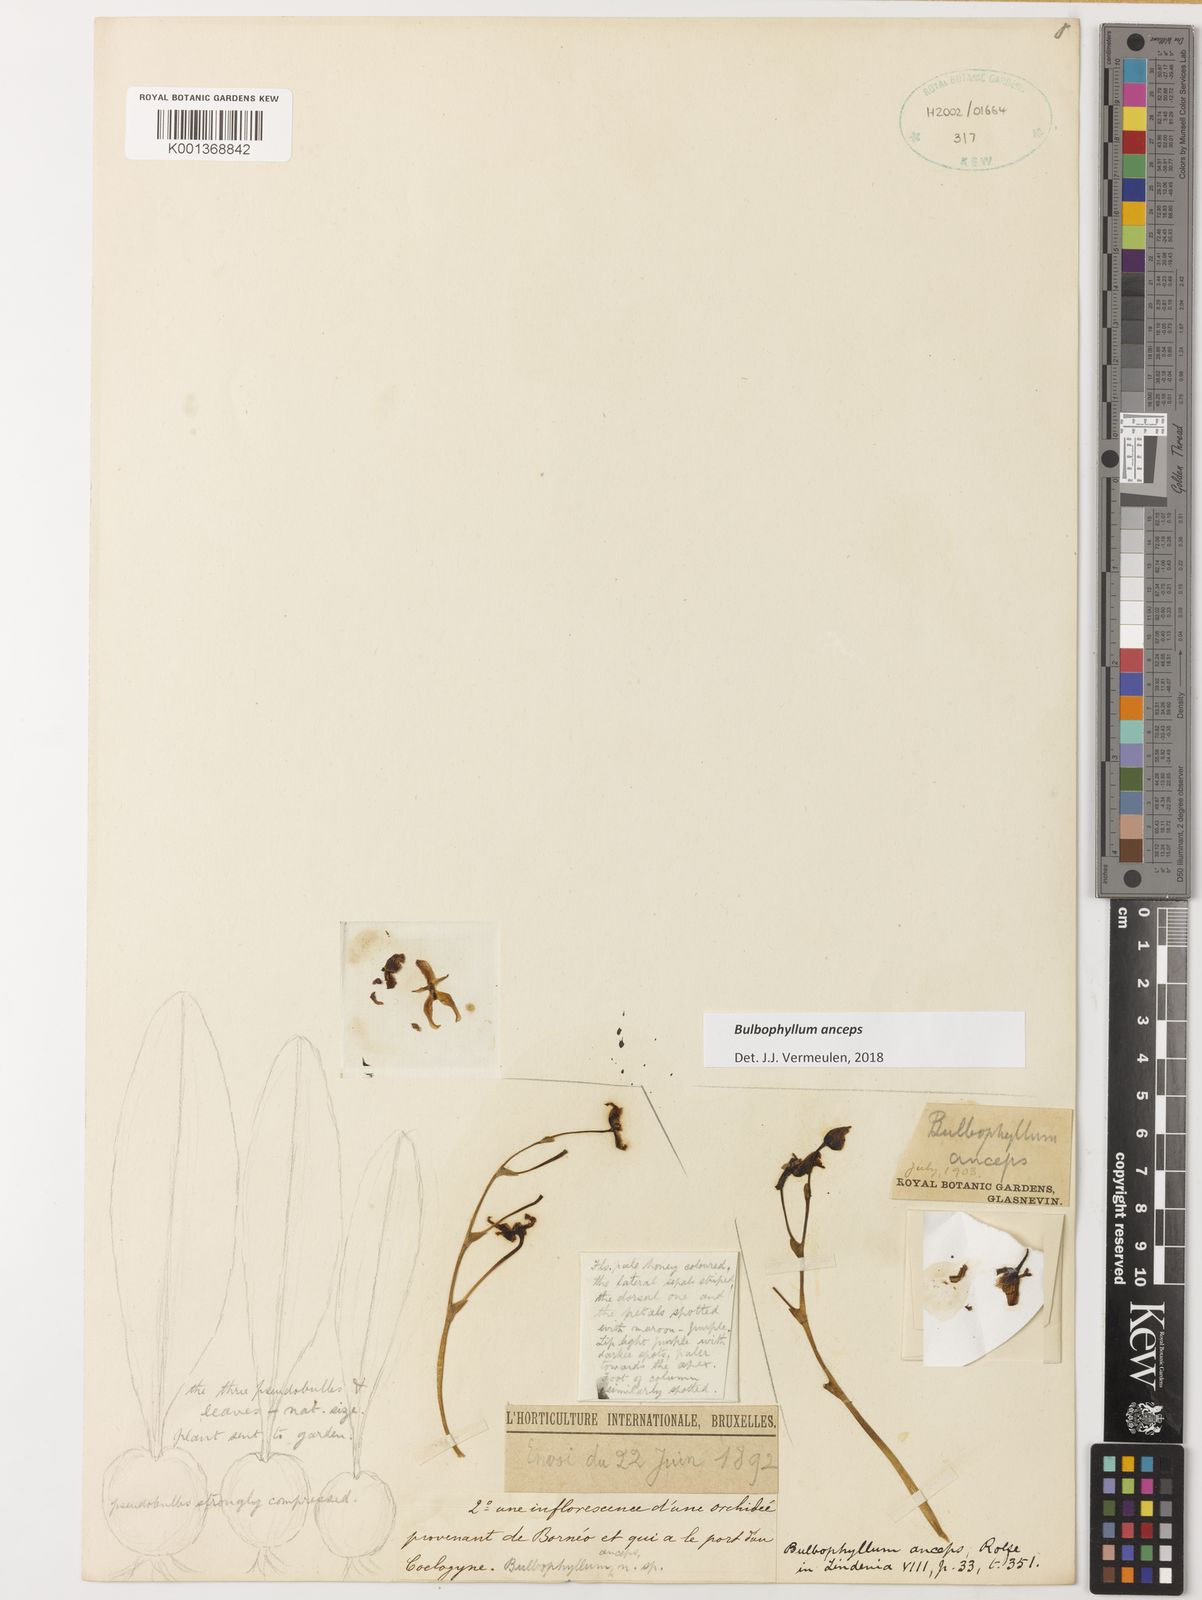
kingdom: Plantae
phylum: Tracheophyta
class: Liliopsida
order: Asparagales
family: Orchidaceae
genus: Bulbophyllum
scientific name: Bulbophyllum anceps
